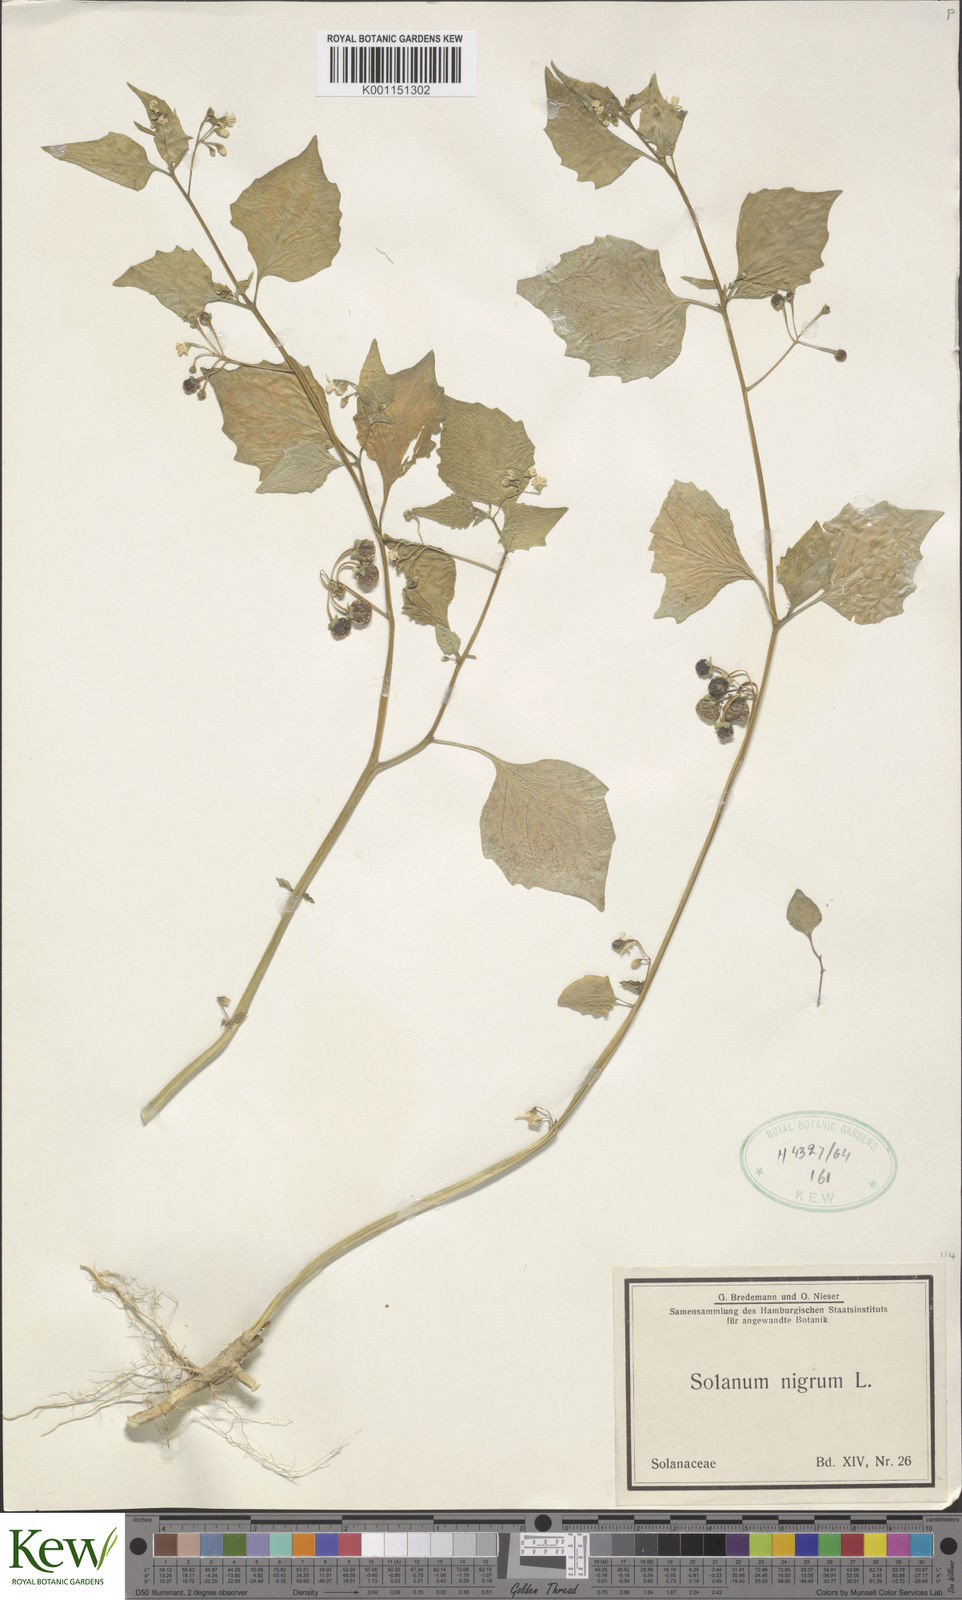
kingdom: Plantae
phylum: Tracheophyta
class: Magnoliopsida
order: Solanales
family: Solanaceae
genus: Solanum
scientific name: Solanum nigrum
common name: Black nightshade
